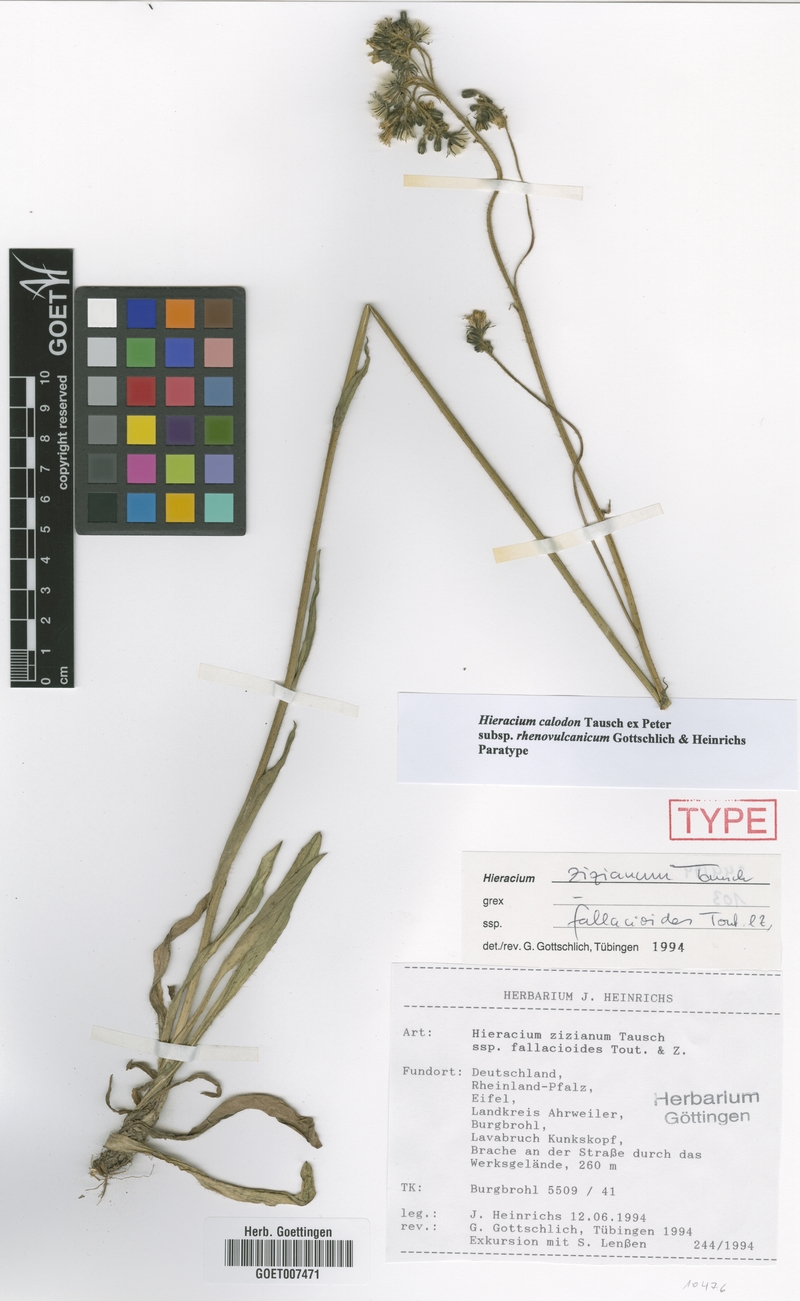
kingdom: Plantae
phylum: Tracheophyta
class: Magnoliopsida
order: Asterales
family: Asteraceae
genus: Pilosella
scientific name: Pilosella calodon
